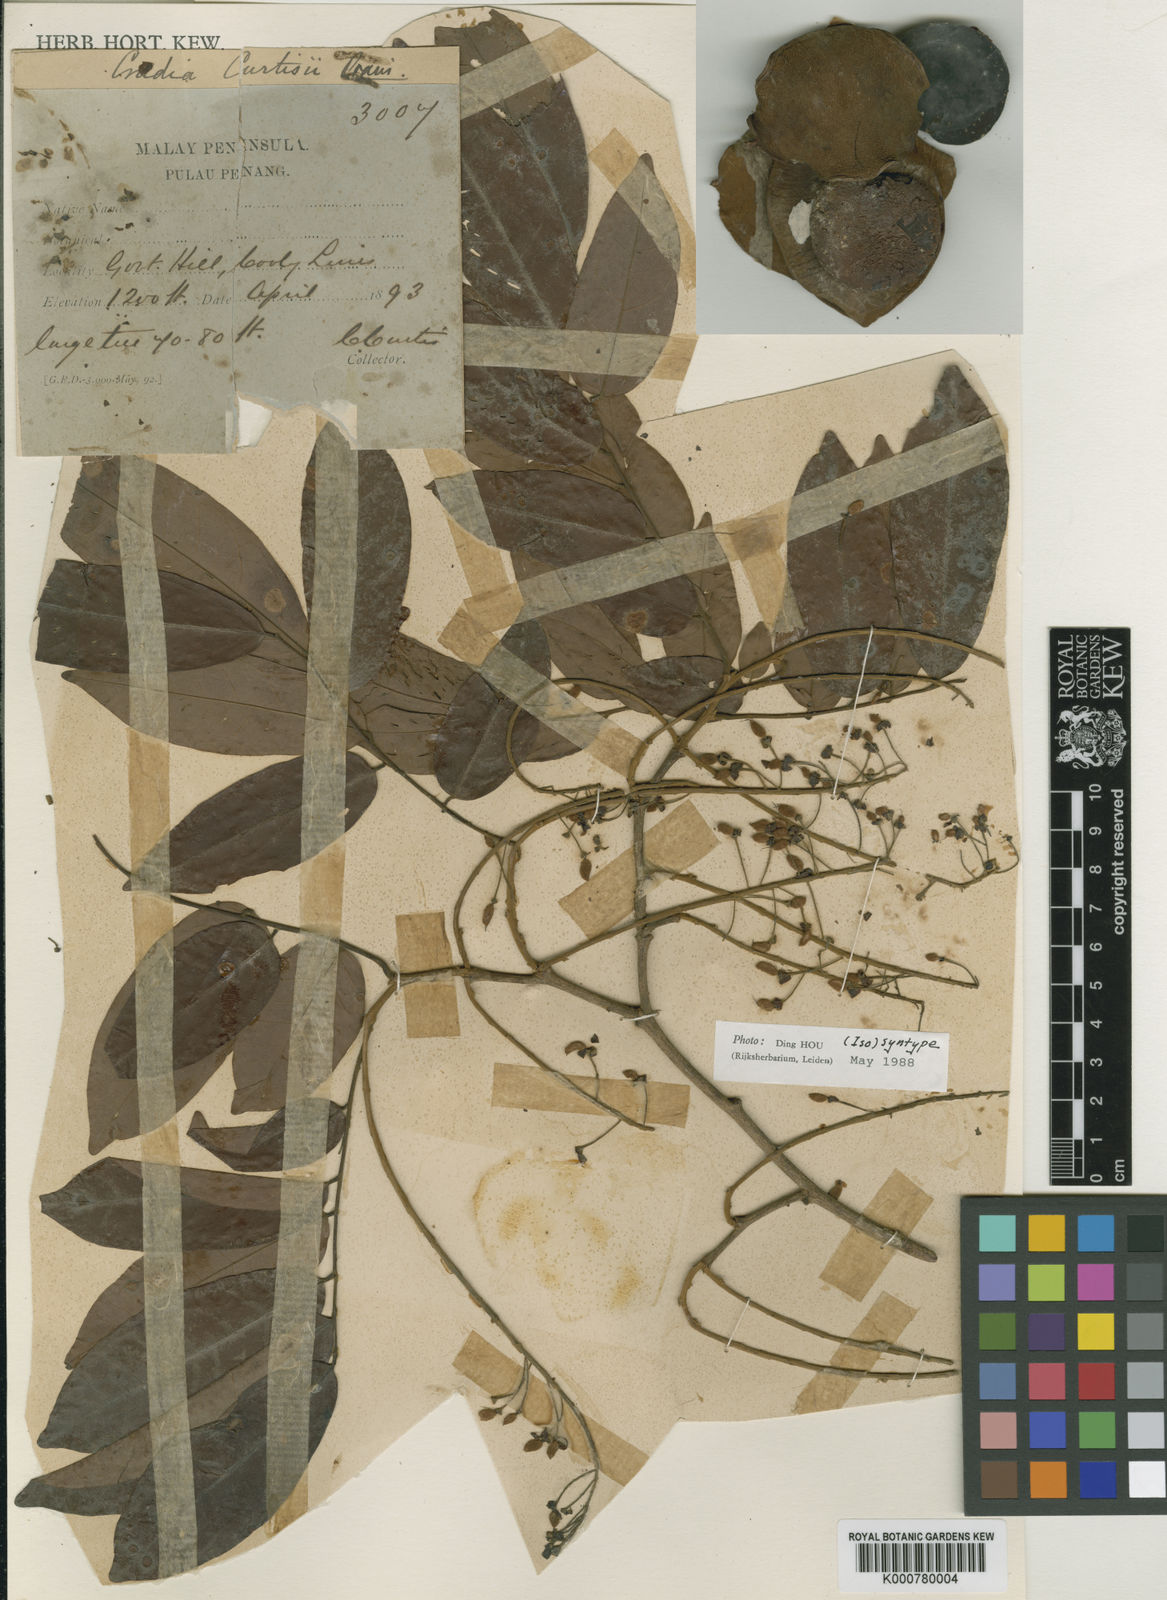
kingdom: Plantae
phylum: Tracheophyta
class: Magnoliopsida
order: Fabales
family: Fabaceae
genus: Crudia
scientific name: Crudia
